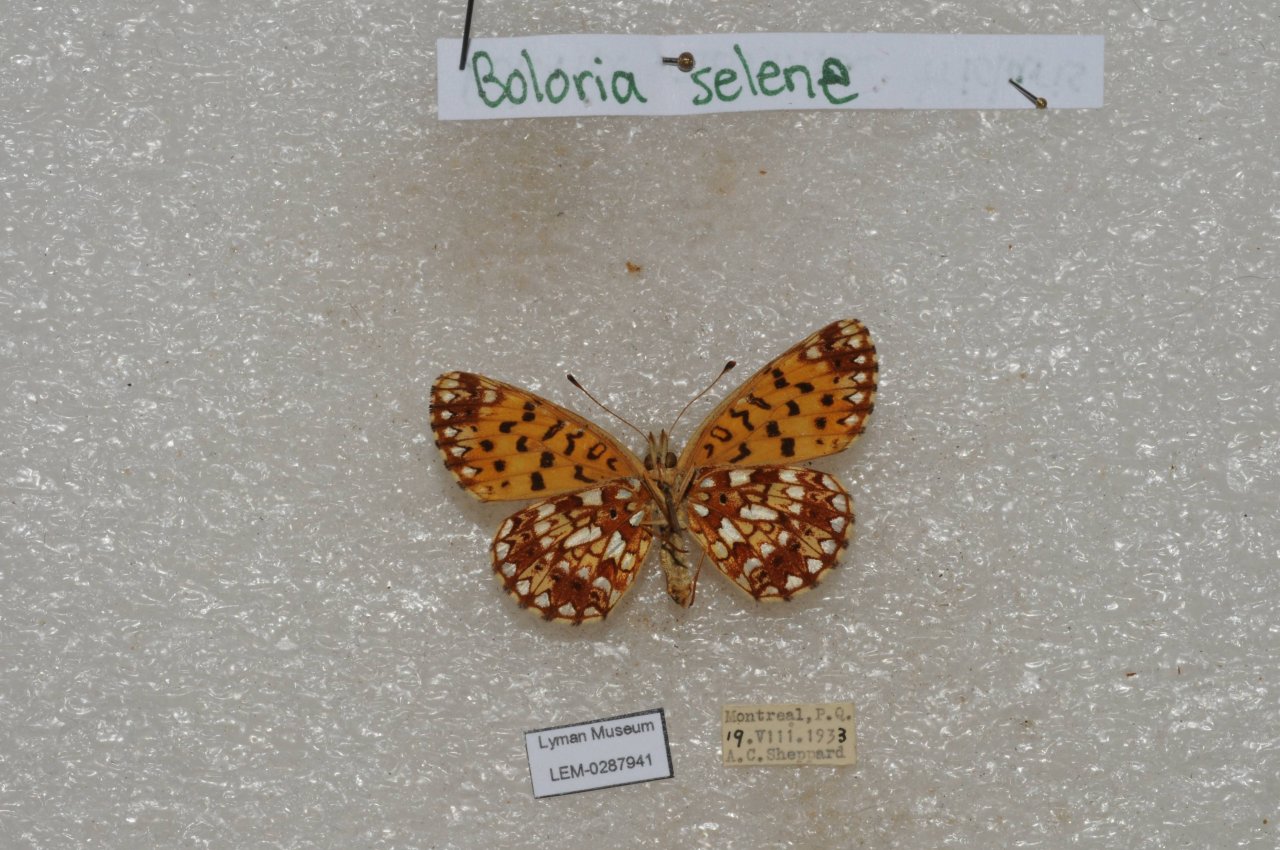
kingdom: Animalia
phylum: Arthropoda
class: Insecta
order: Lepidoptera
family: Nymphalidae
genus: Boloria
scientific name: Boloria selene
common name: Silver-bordered Fritillary
